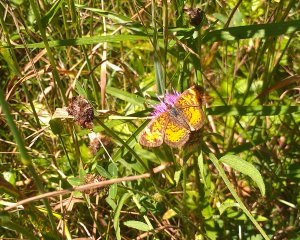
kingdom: Animalia
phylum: Arthropoda
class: Insecta
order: Lepidoptera
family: Nymphalidae
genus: Phyciodes
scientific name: Phyciodes tharos
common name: Northern Crescent
